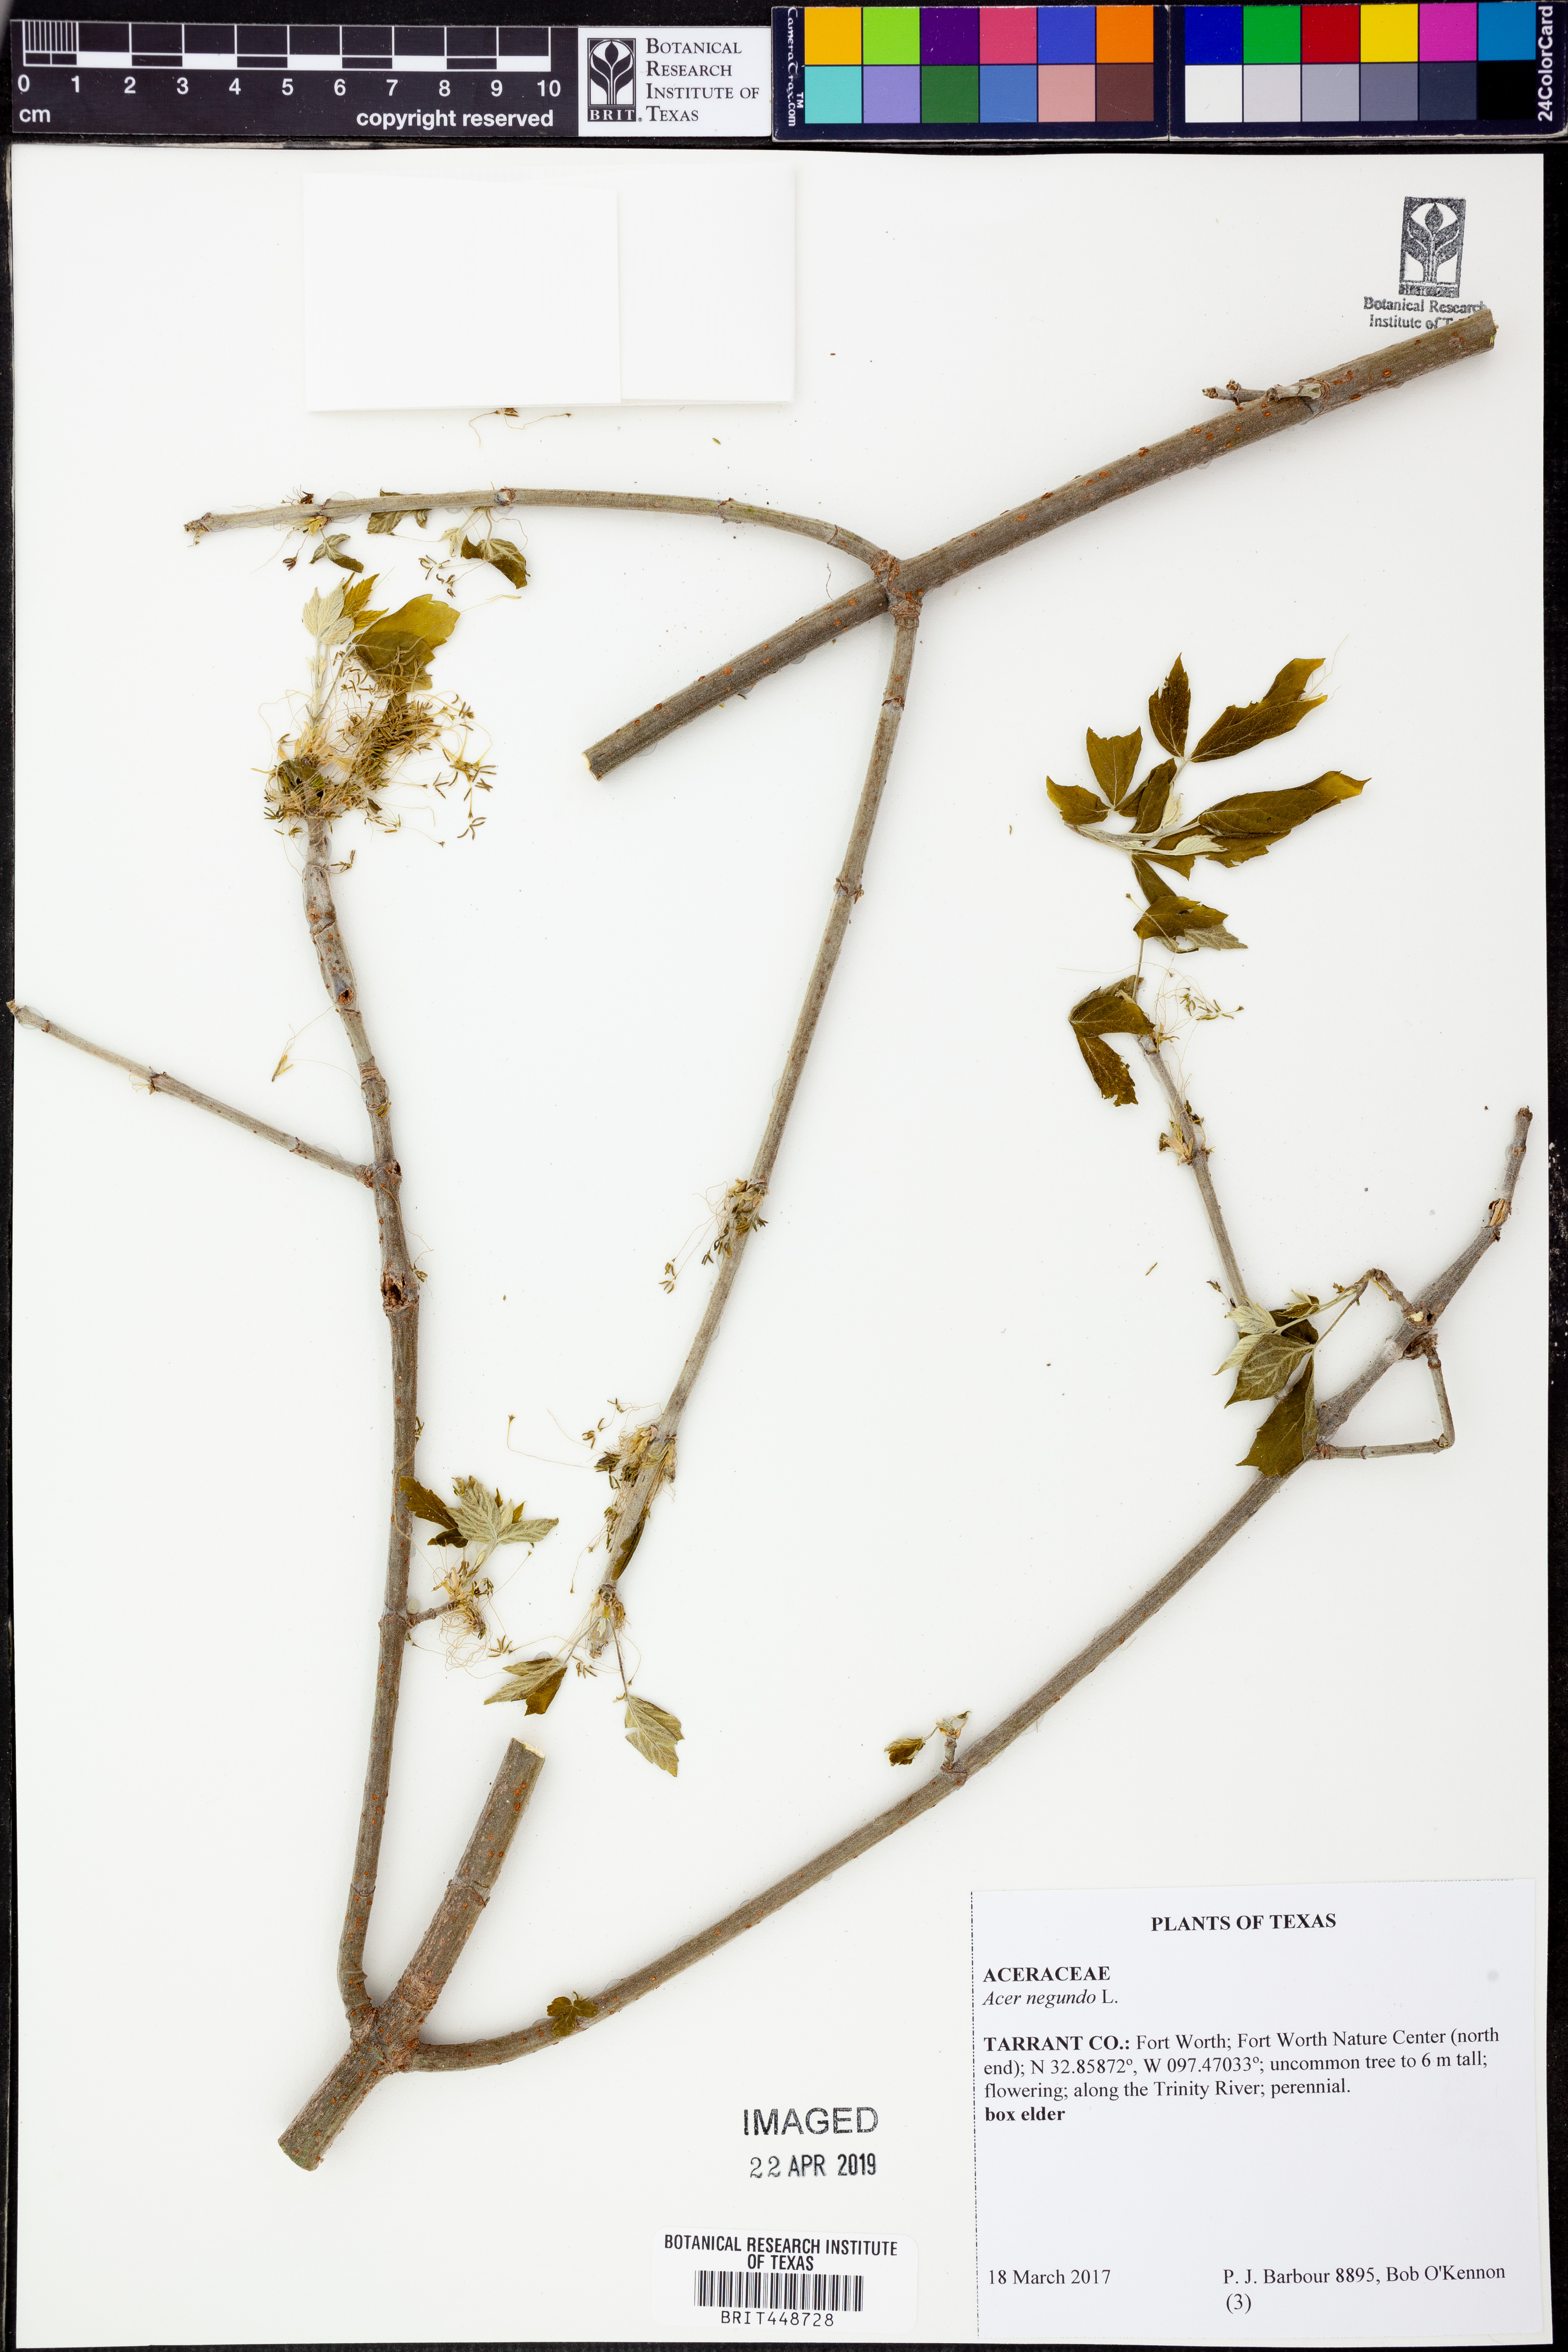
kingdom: Plantae
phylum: Tracheophyta
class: Magnoliopsida
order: Sapindales
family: Sapindaceae
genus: Acer
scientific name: Acer negundo
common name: Ashleaf maple
